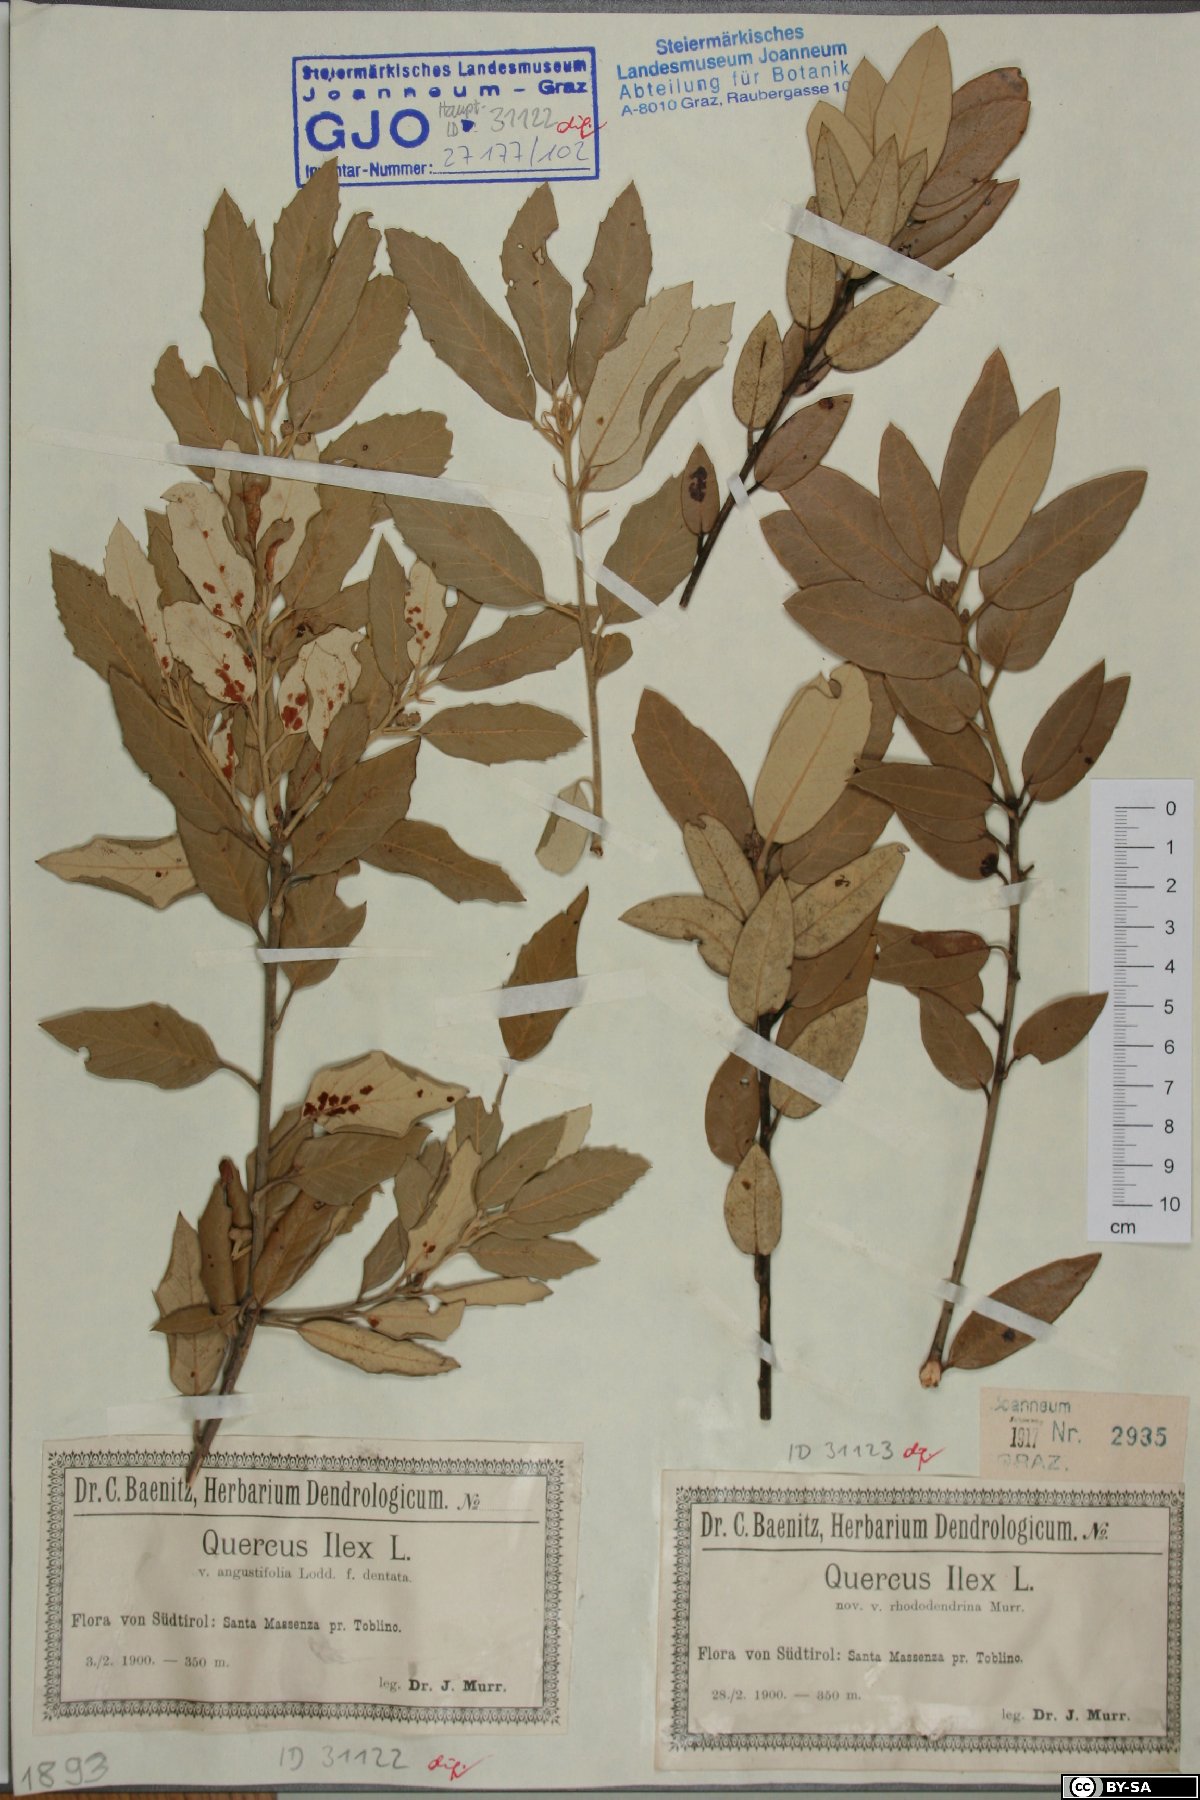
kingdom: Plantae
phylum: Tracheophyta
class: Magnoliopsida
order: Fagales
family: Fagaceae
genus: Quercus
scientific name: Quercus ilex
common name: Evergreen oak
